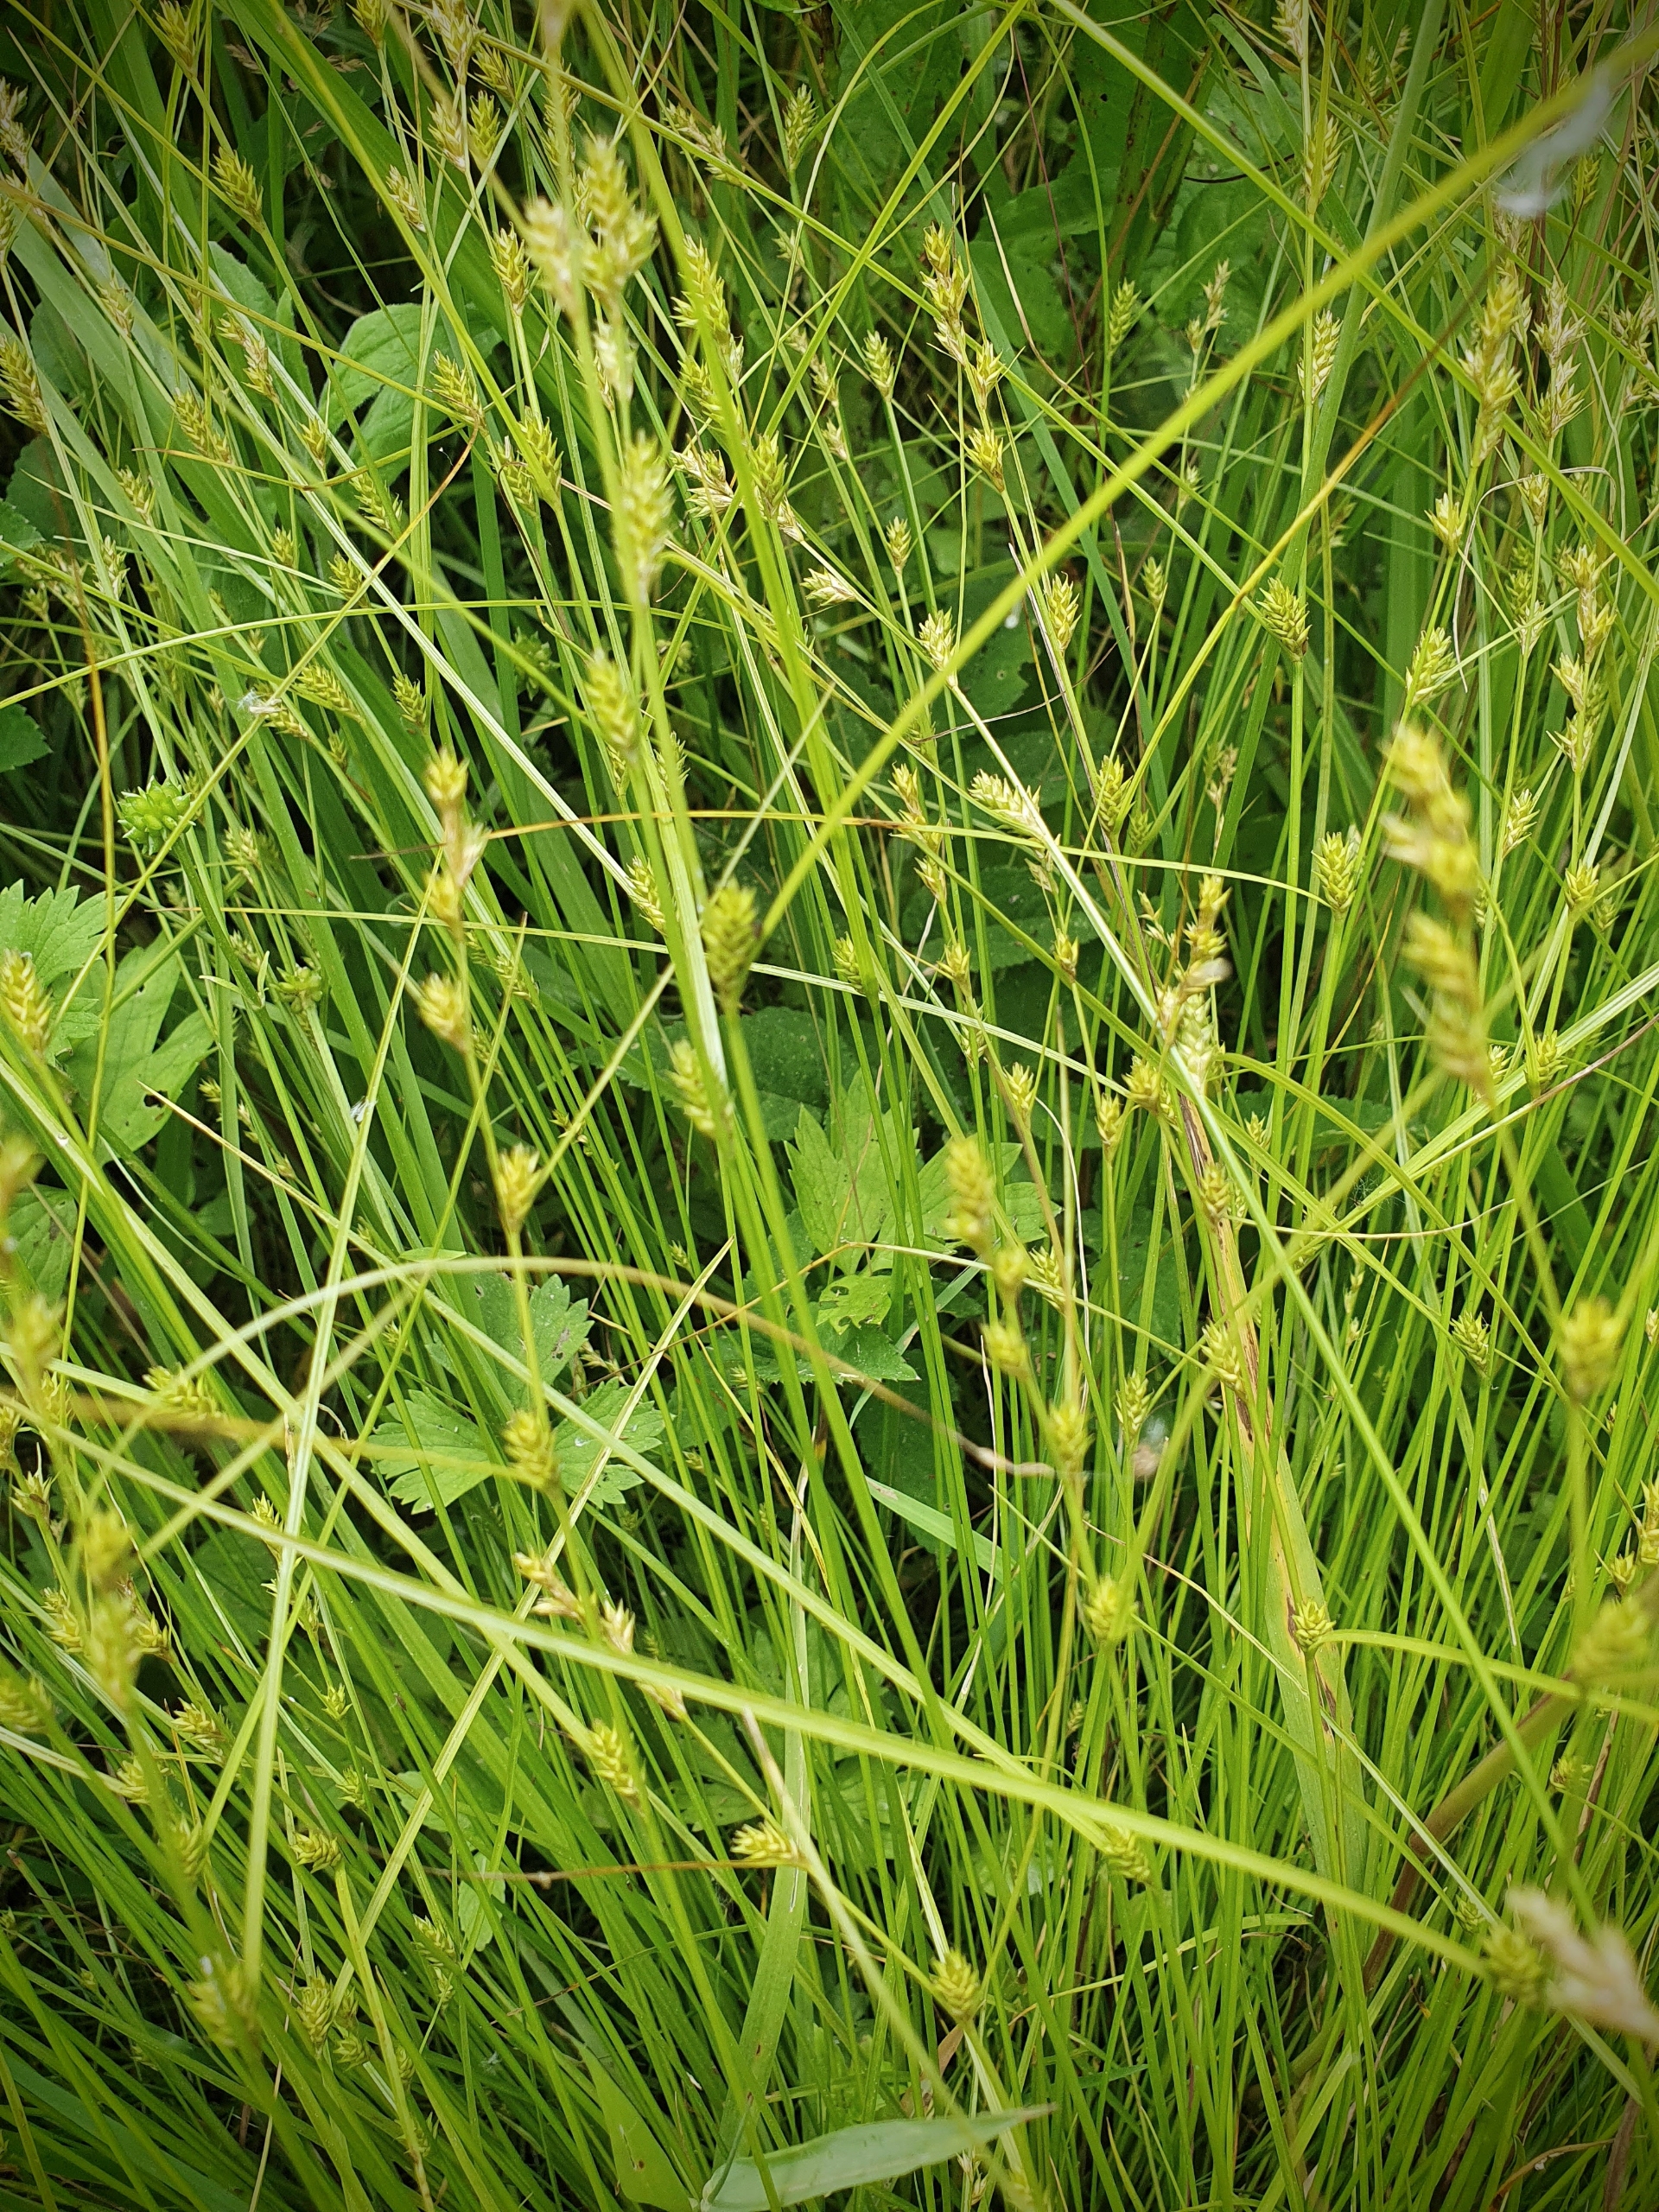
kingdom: Plantae
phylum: Tracheophyta
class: Liliopsida
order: Poales
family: Cyperaceae
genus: Carex
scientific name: Carex remota
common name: Akselblomstret star
